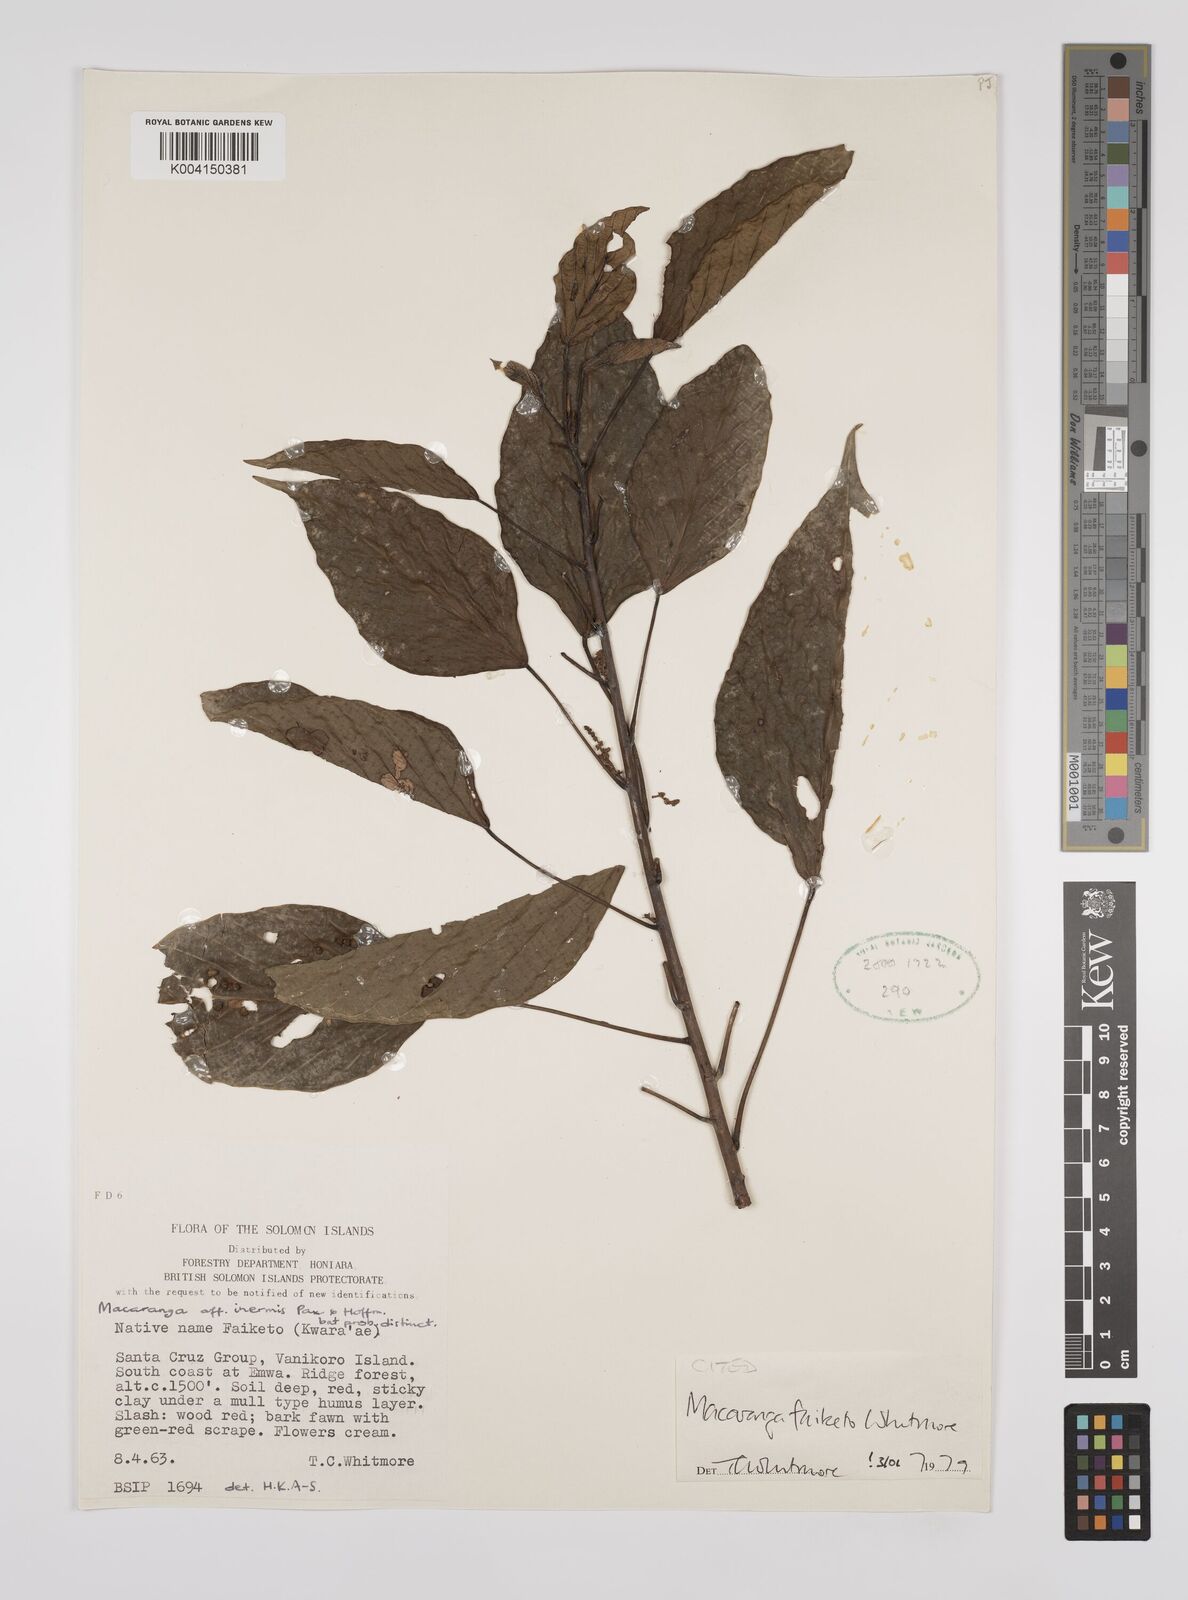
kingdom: Plantae
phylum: Tracheophyta
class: Magnoliopsida
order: Malpighiales
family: Euphorbiaceae
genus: Macaranga
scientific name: Macaranga faiketo
